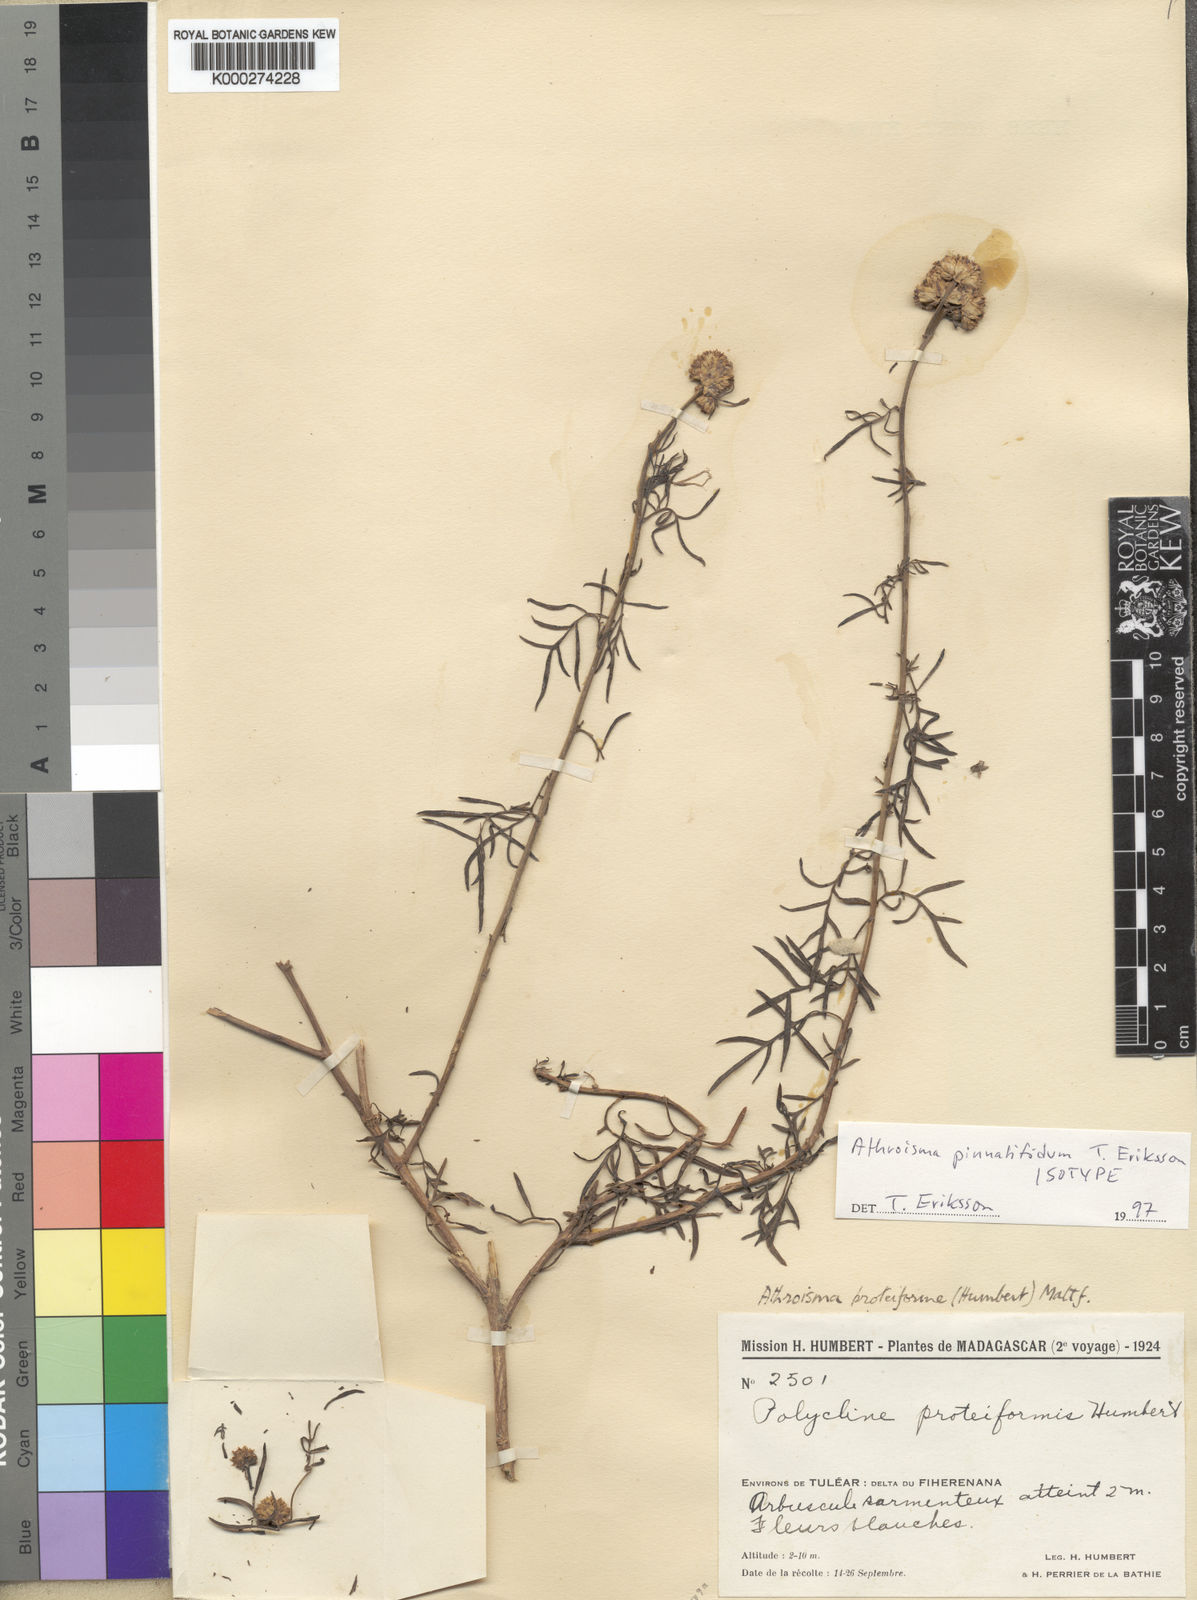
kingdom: Plantae
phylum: Tracheophyta
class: Magnoliopsida
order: Asterales
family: Asteraceae
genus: Athroisma
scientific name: Athroisma pinnatifidum
